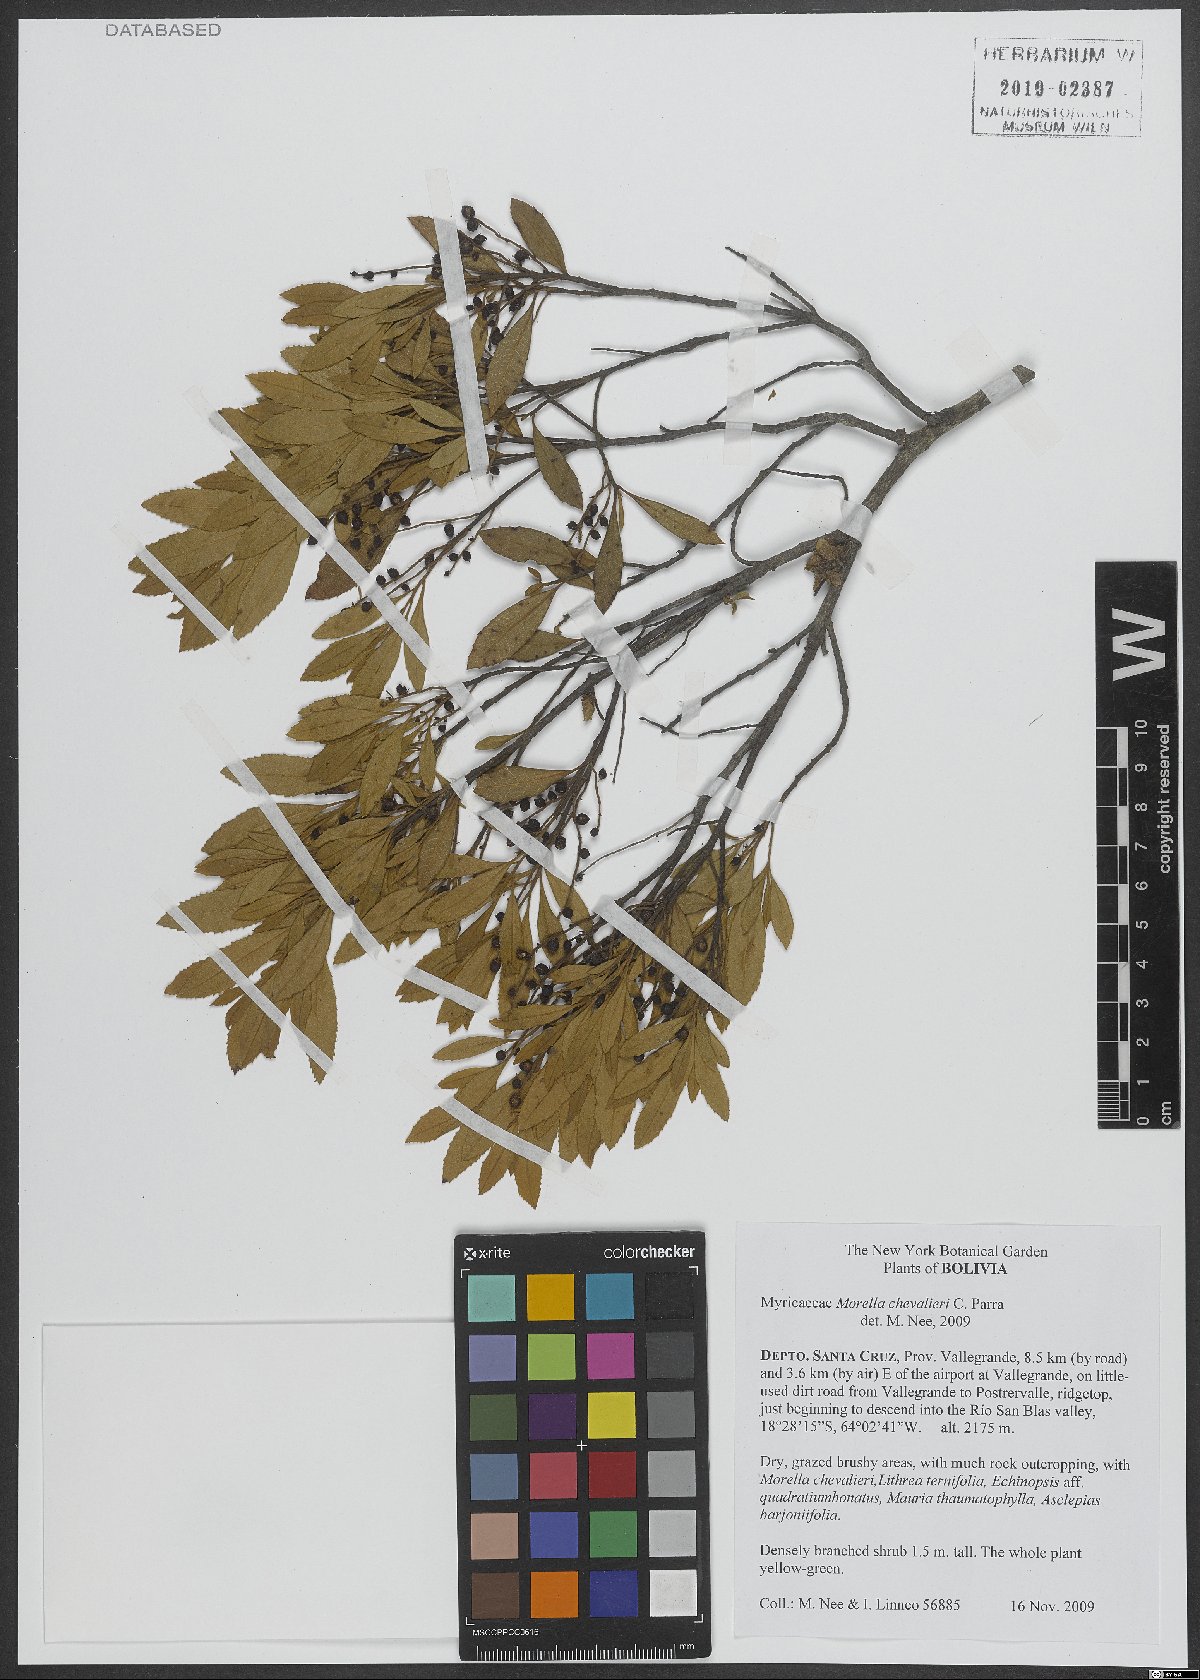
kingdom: Plantae
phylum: Tracheophyta
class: Magnoliopsida
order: Fagales
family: Myricaceae
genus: Morella
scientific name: Morella chevalieri
